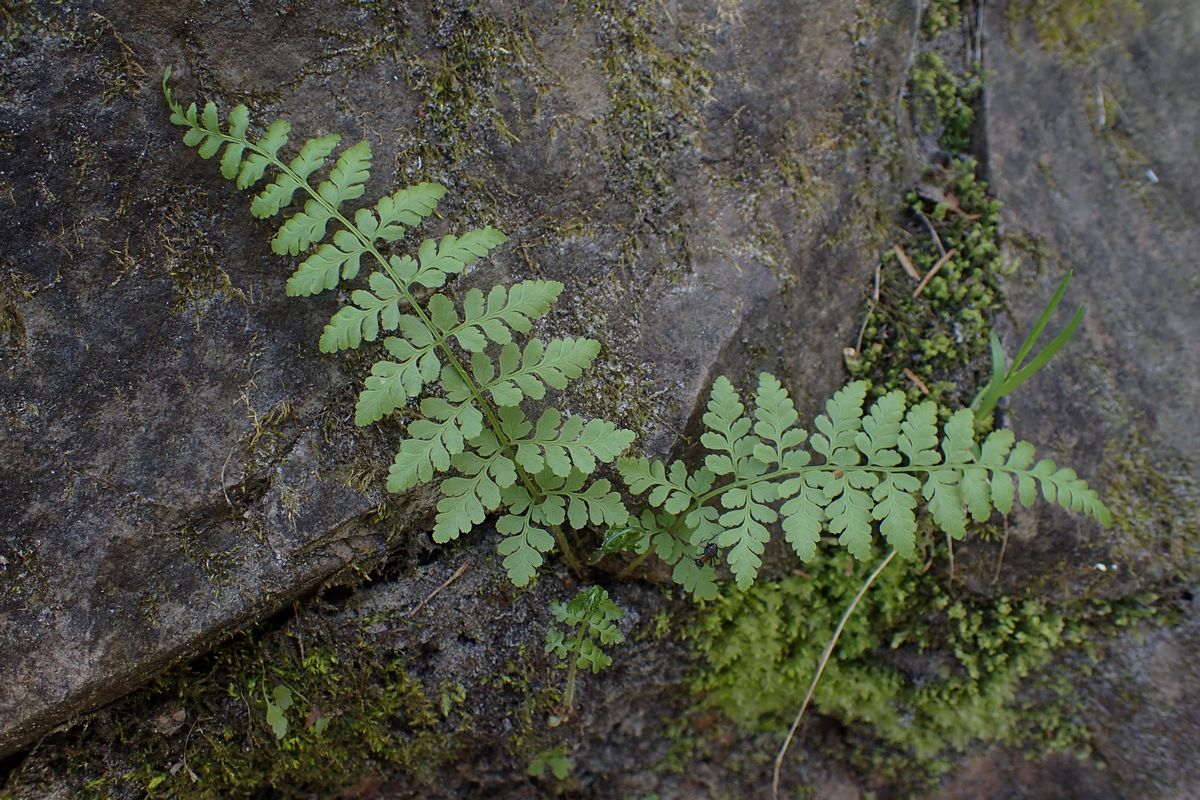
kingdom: Plantae
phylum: Tracheophyta
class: Polypodiopsida
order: Polypodiales
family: Cystopteridaceae
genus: Cystopteris
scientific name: Cystopteris fragilis
